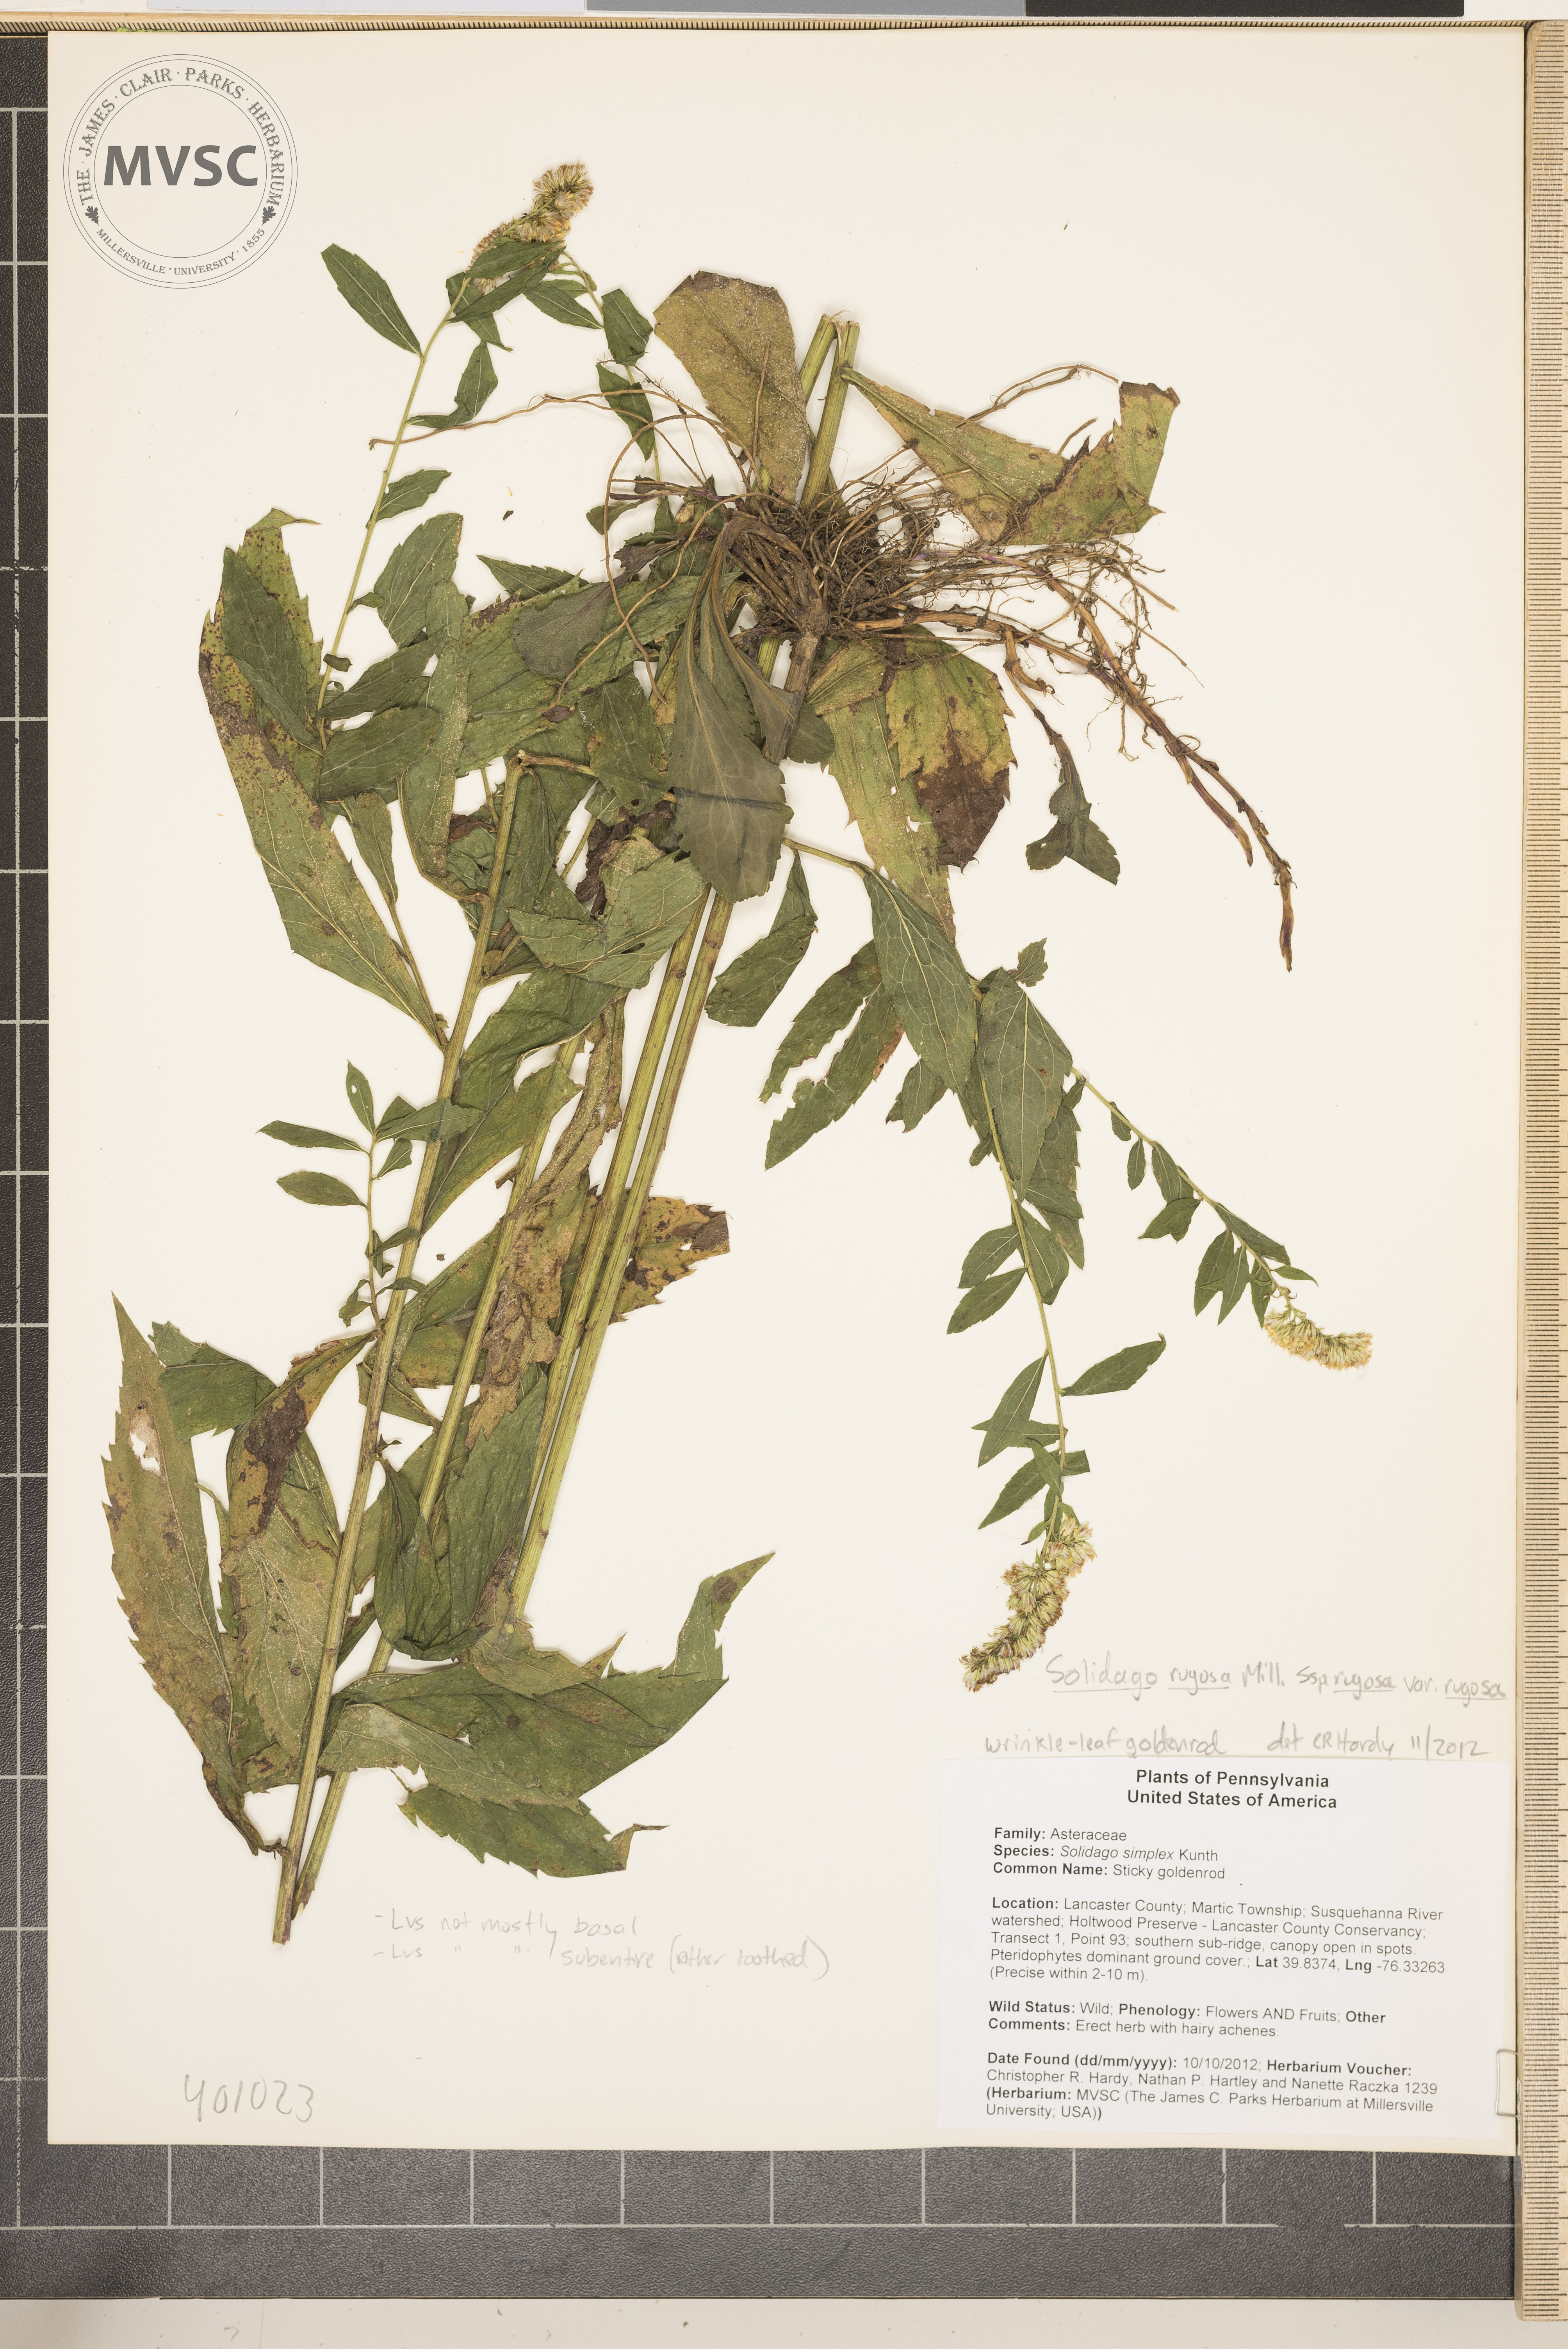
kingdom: Plantae
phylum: Tracheophyta
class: Magnoliopsida
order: Asterales
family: Asteraceae
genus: Solidago
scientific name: Solidago rugosa
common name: Wrinkle-leaf goldenrod
